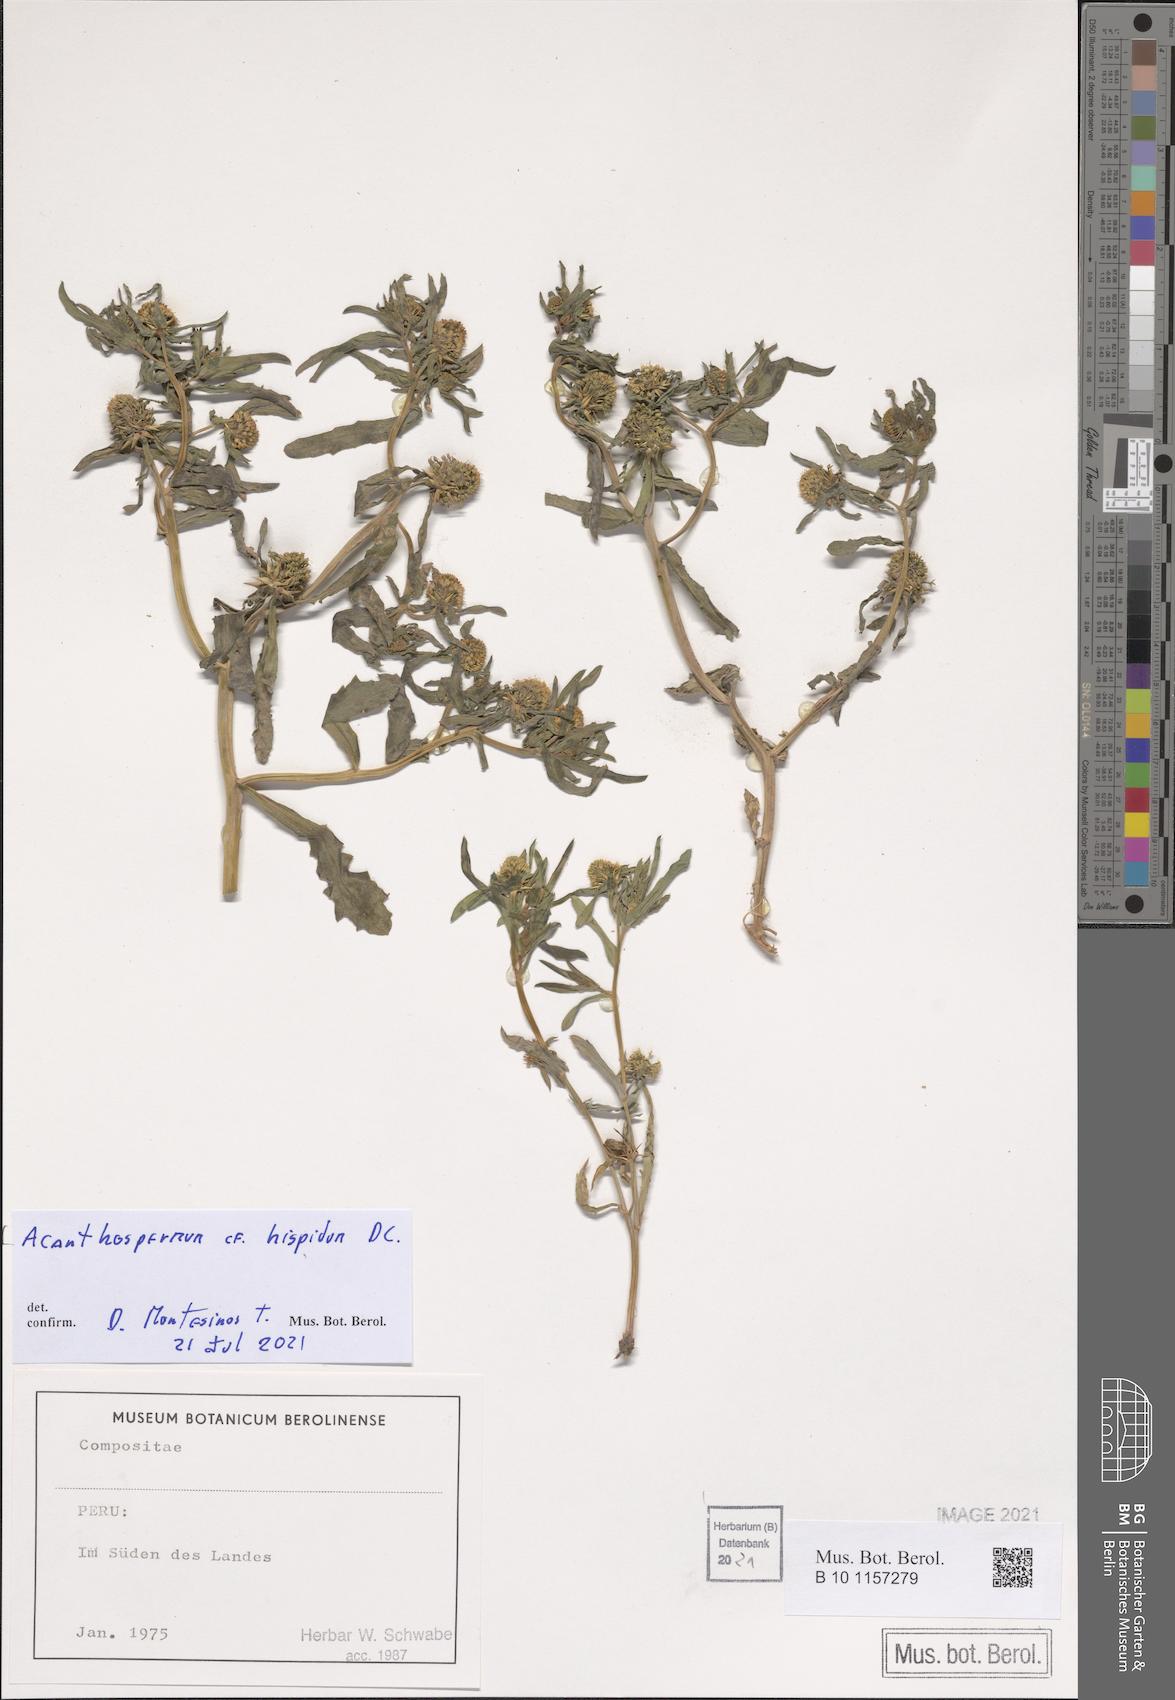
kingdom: Plantae
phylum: Tracheophyta
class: Magnoliopsida
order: Asterales
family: Asteraceae
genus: Acanthospermum
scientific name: Acanthospermum hispidum
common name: Hispid starbur
